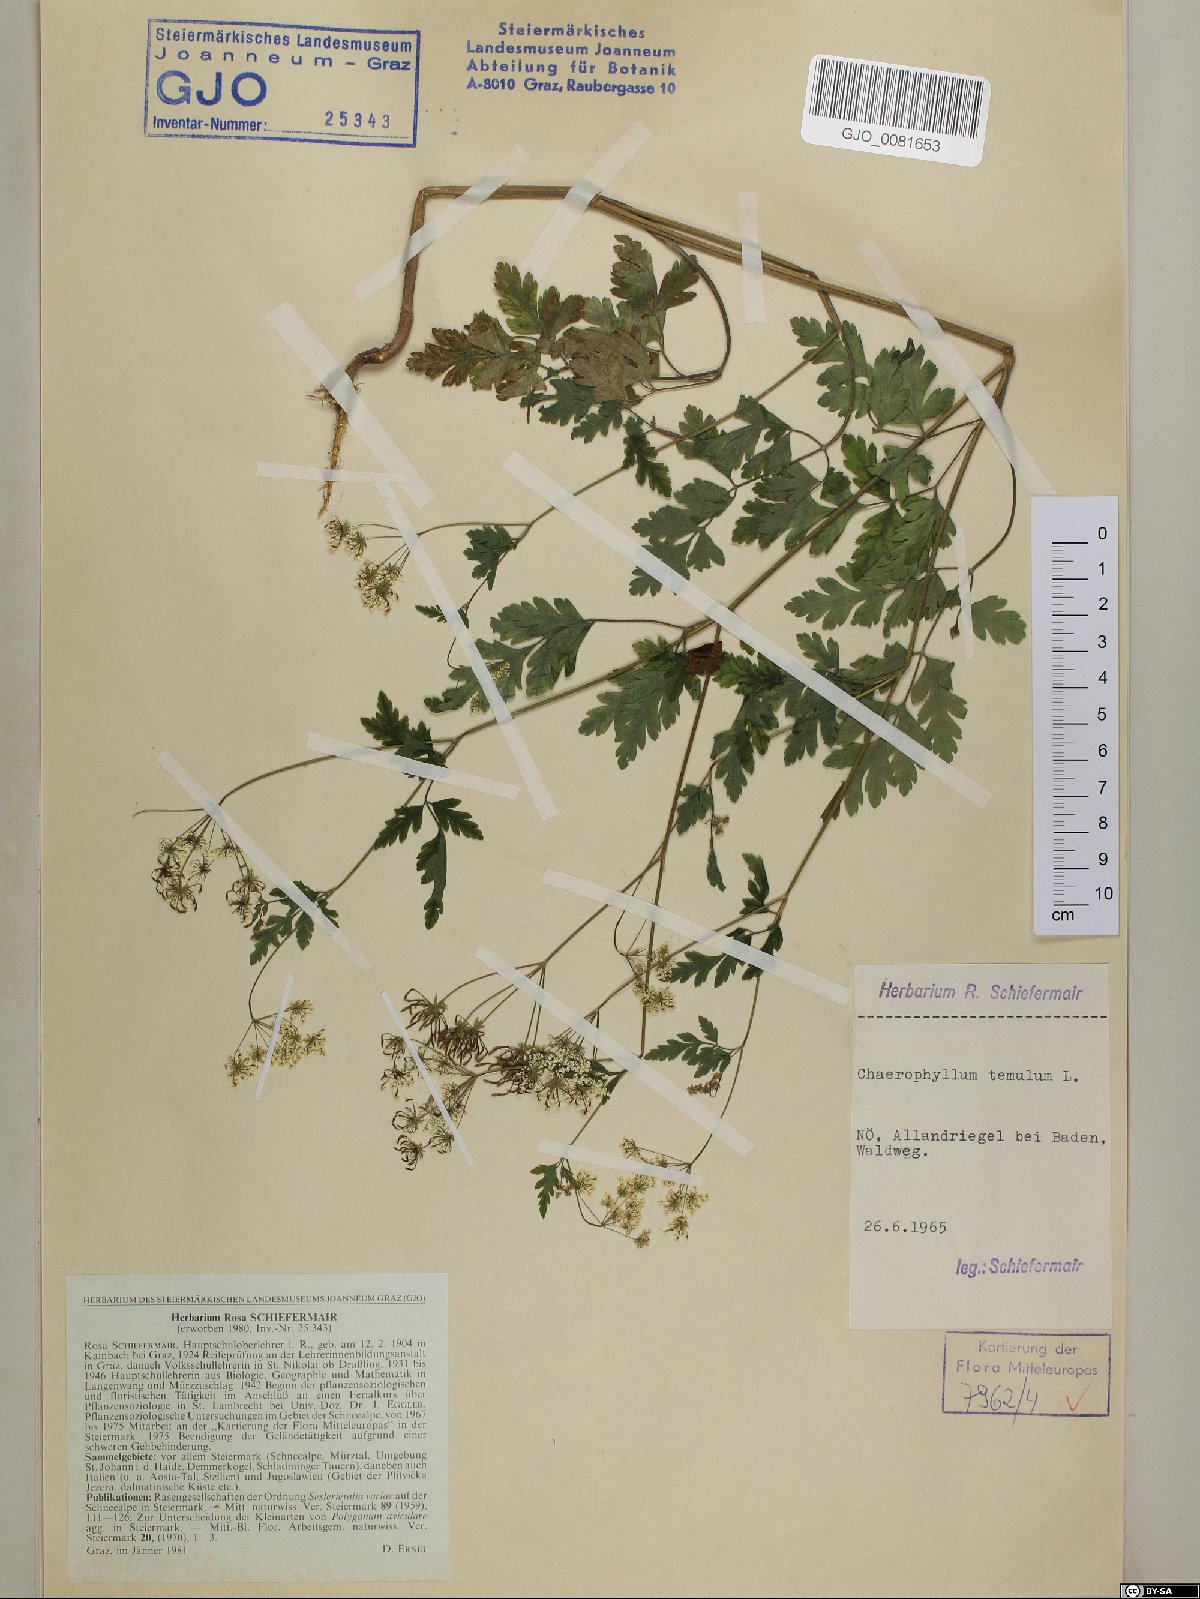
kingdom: Plantae
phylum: Tracheophyta
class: Magnoliopsida
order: Apiales
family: Apiaceae
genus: Chaerophyllum
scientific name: Chaerophyllum temulum
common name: Rough chervil
